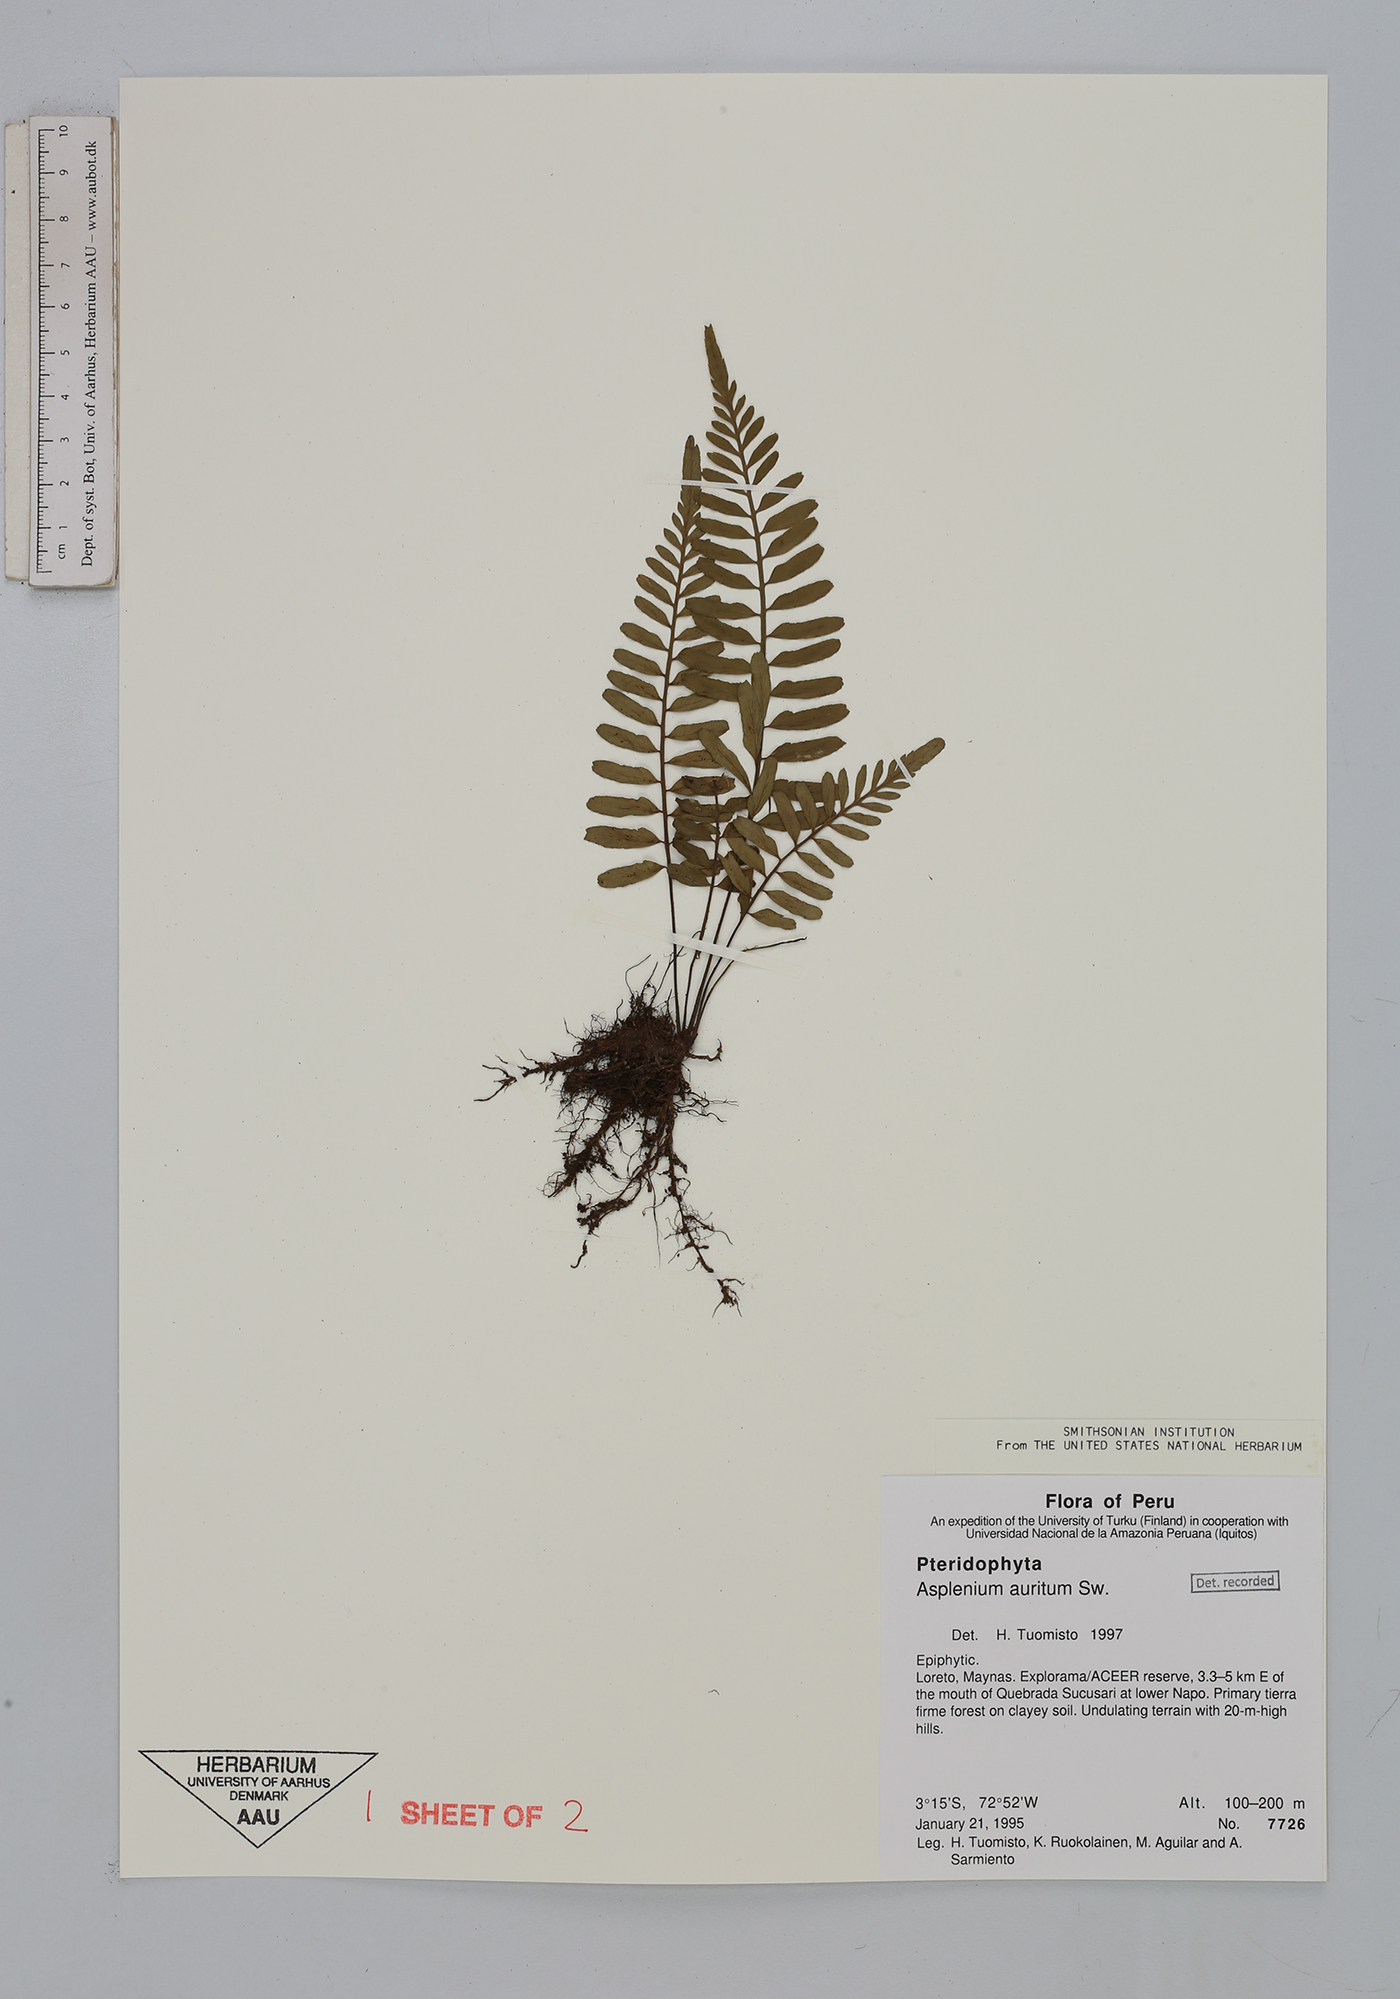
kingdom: Plantae
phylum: Tracheophyta
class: Polypodiopsida
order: Polypodiales
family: Aspleniaceae
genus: Asplenium
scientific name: Asplenium auritum
